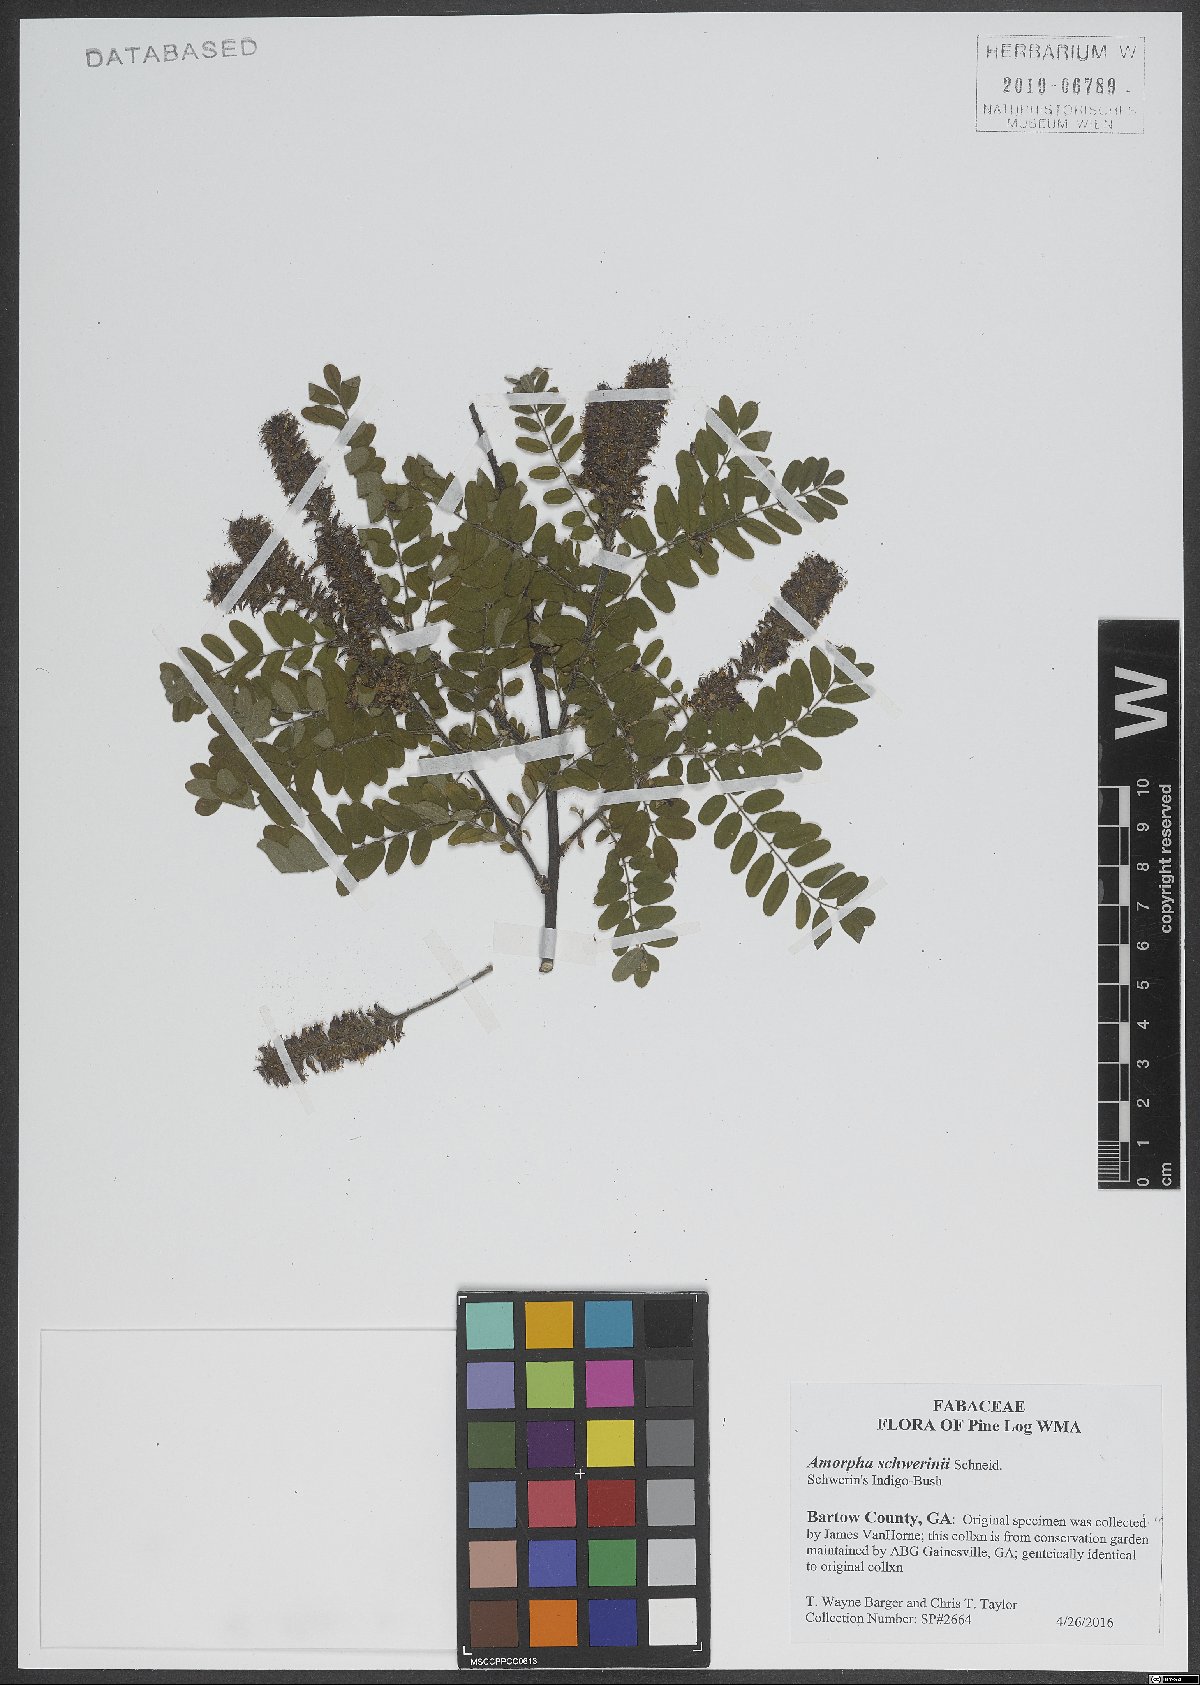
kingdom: Plantae
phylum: Tracheophyta
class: Magnoliopsida
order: Fabales
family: Fabaceae
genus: Amorpha
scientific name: Amorpha schwerinii
